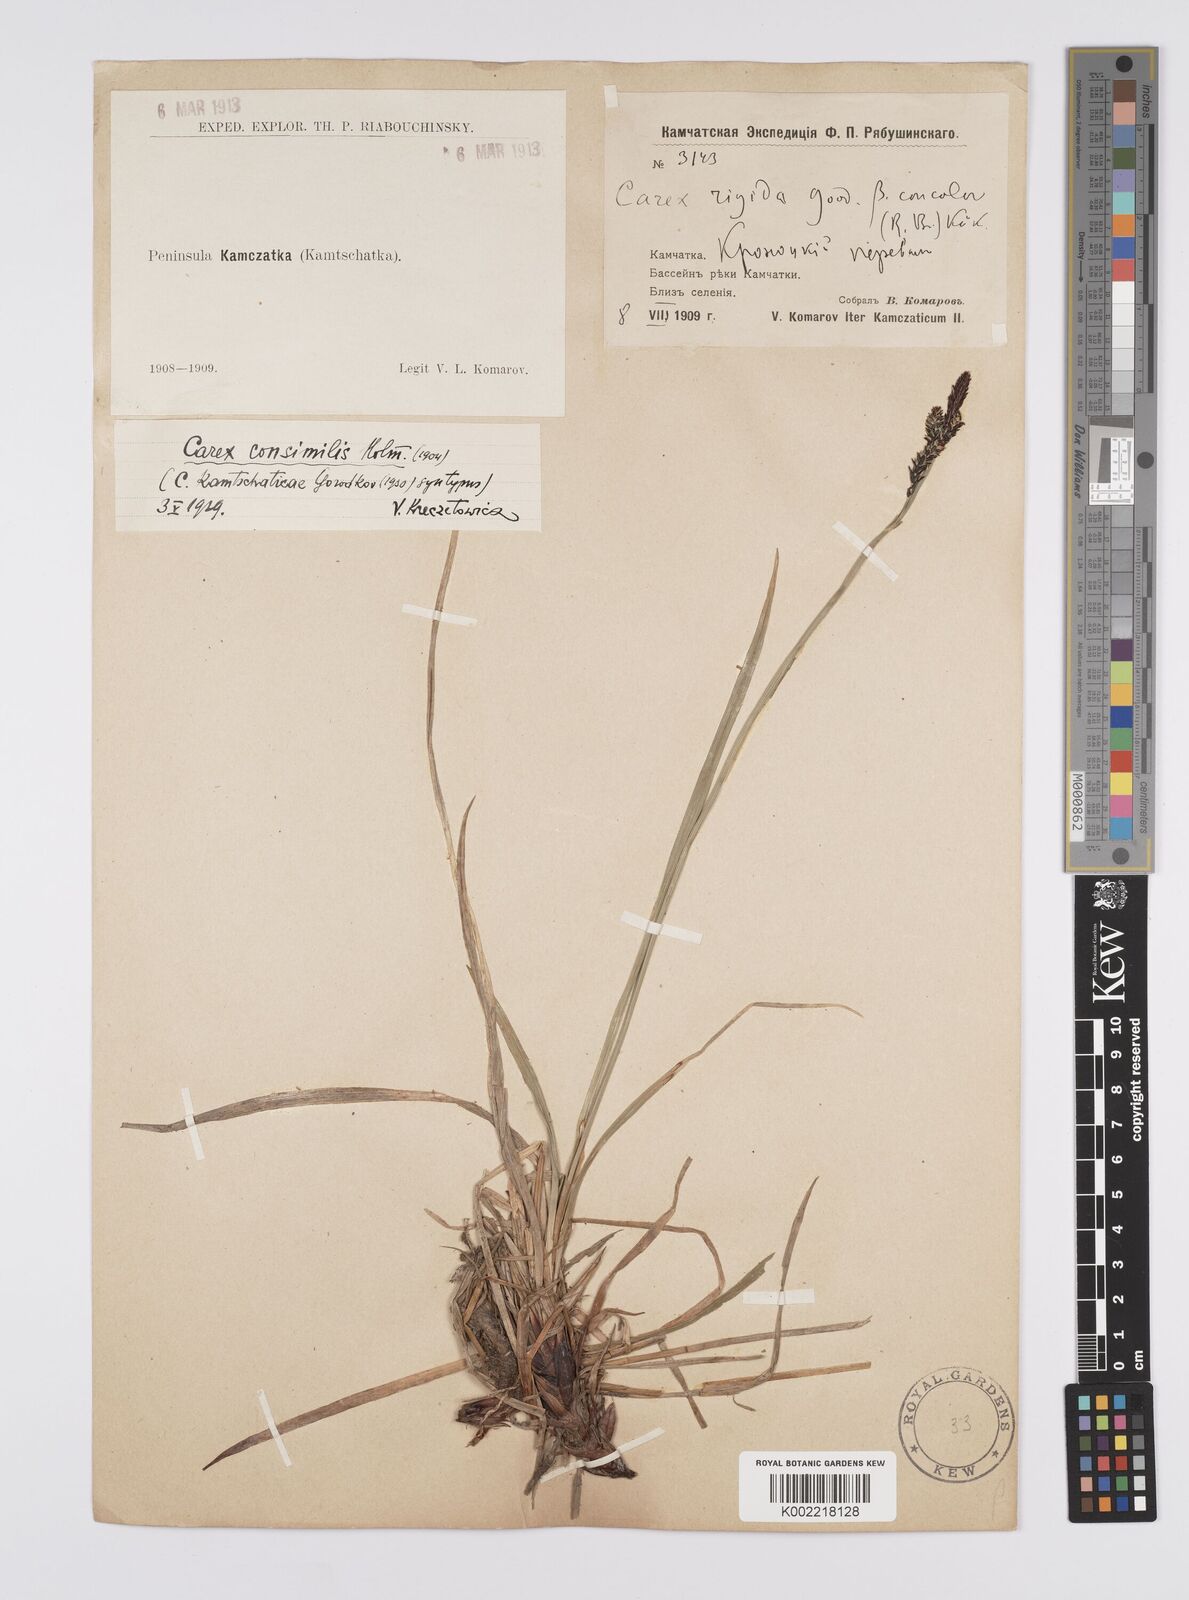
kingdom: Plantae
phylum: Tracheophyta
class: Liliopsida
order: Poales
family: Cyperaceae
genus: Carex
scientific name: Carex bigelowii
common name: Stiff sedge
